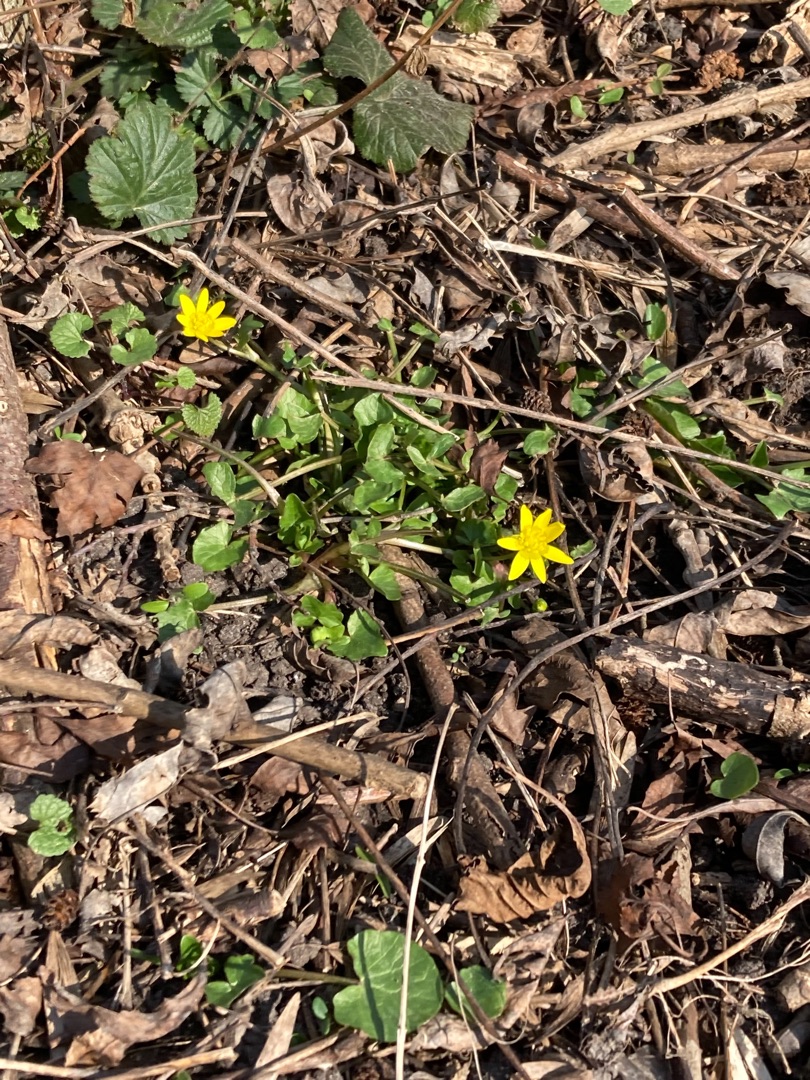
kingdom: Plantae
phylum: Tracheophyta
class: Magnoliopsida
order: Ranunculales
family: Ranunculaceae
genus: Ficaria
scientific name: Ficaria verna
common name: Vorterod
